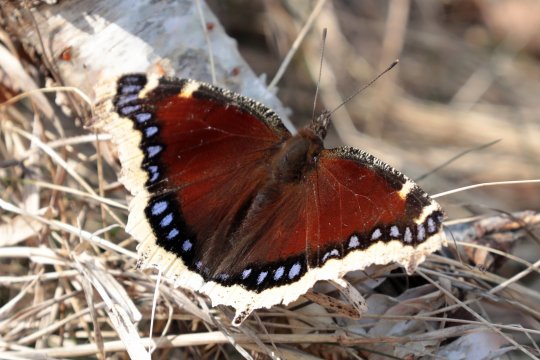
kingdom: Animalia
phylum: Arthropoda
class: Insecta
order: Lepidoptera
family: Nymphalidae
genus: Nymphalis
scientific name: Nymphalis antiopa
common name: Mourning Cloak
